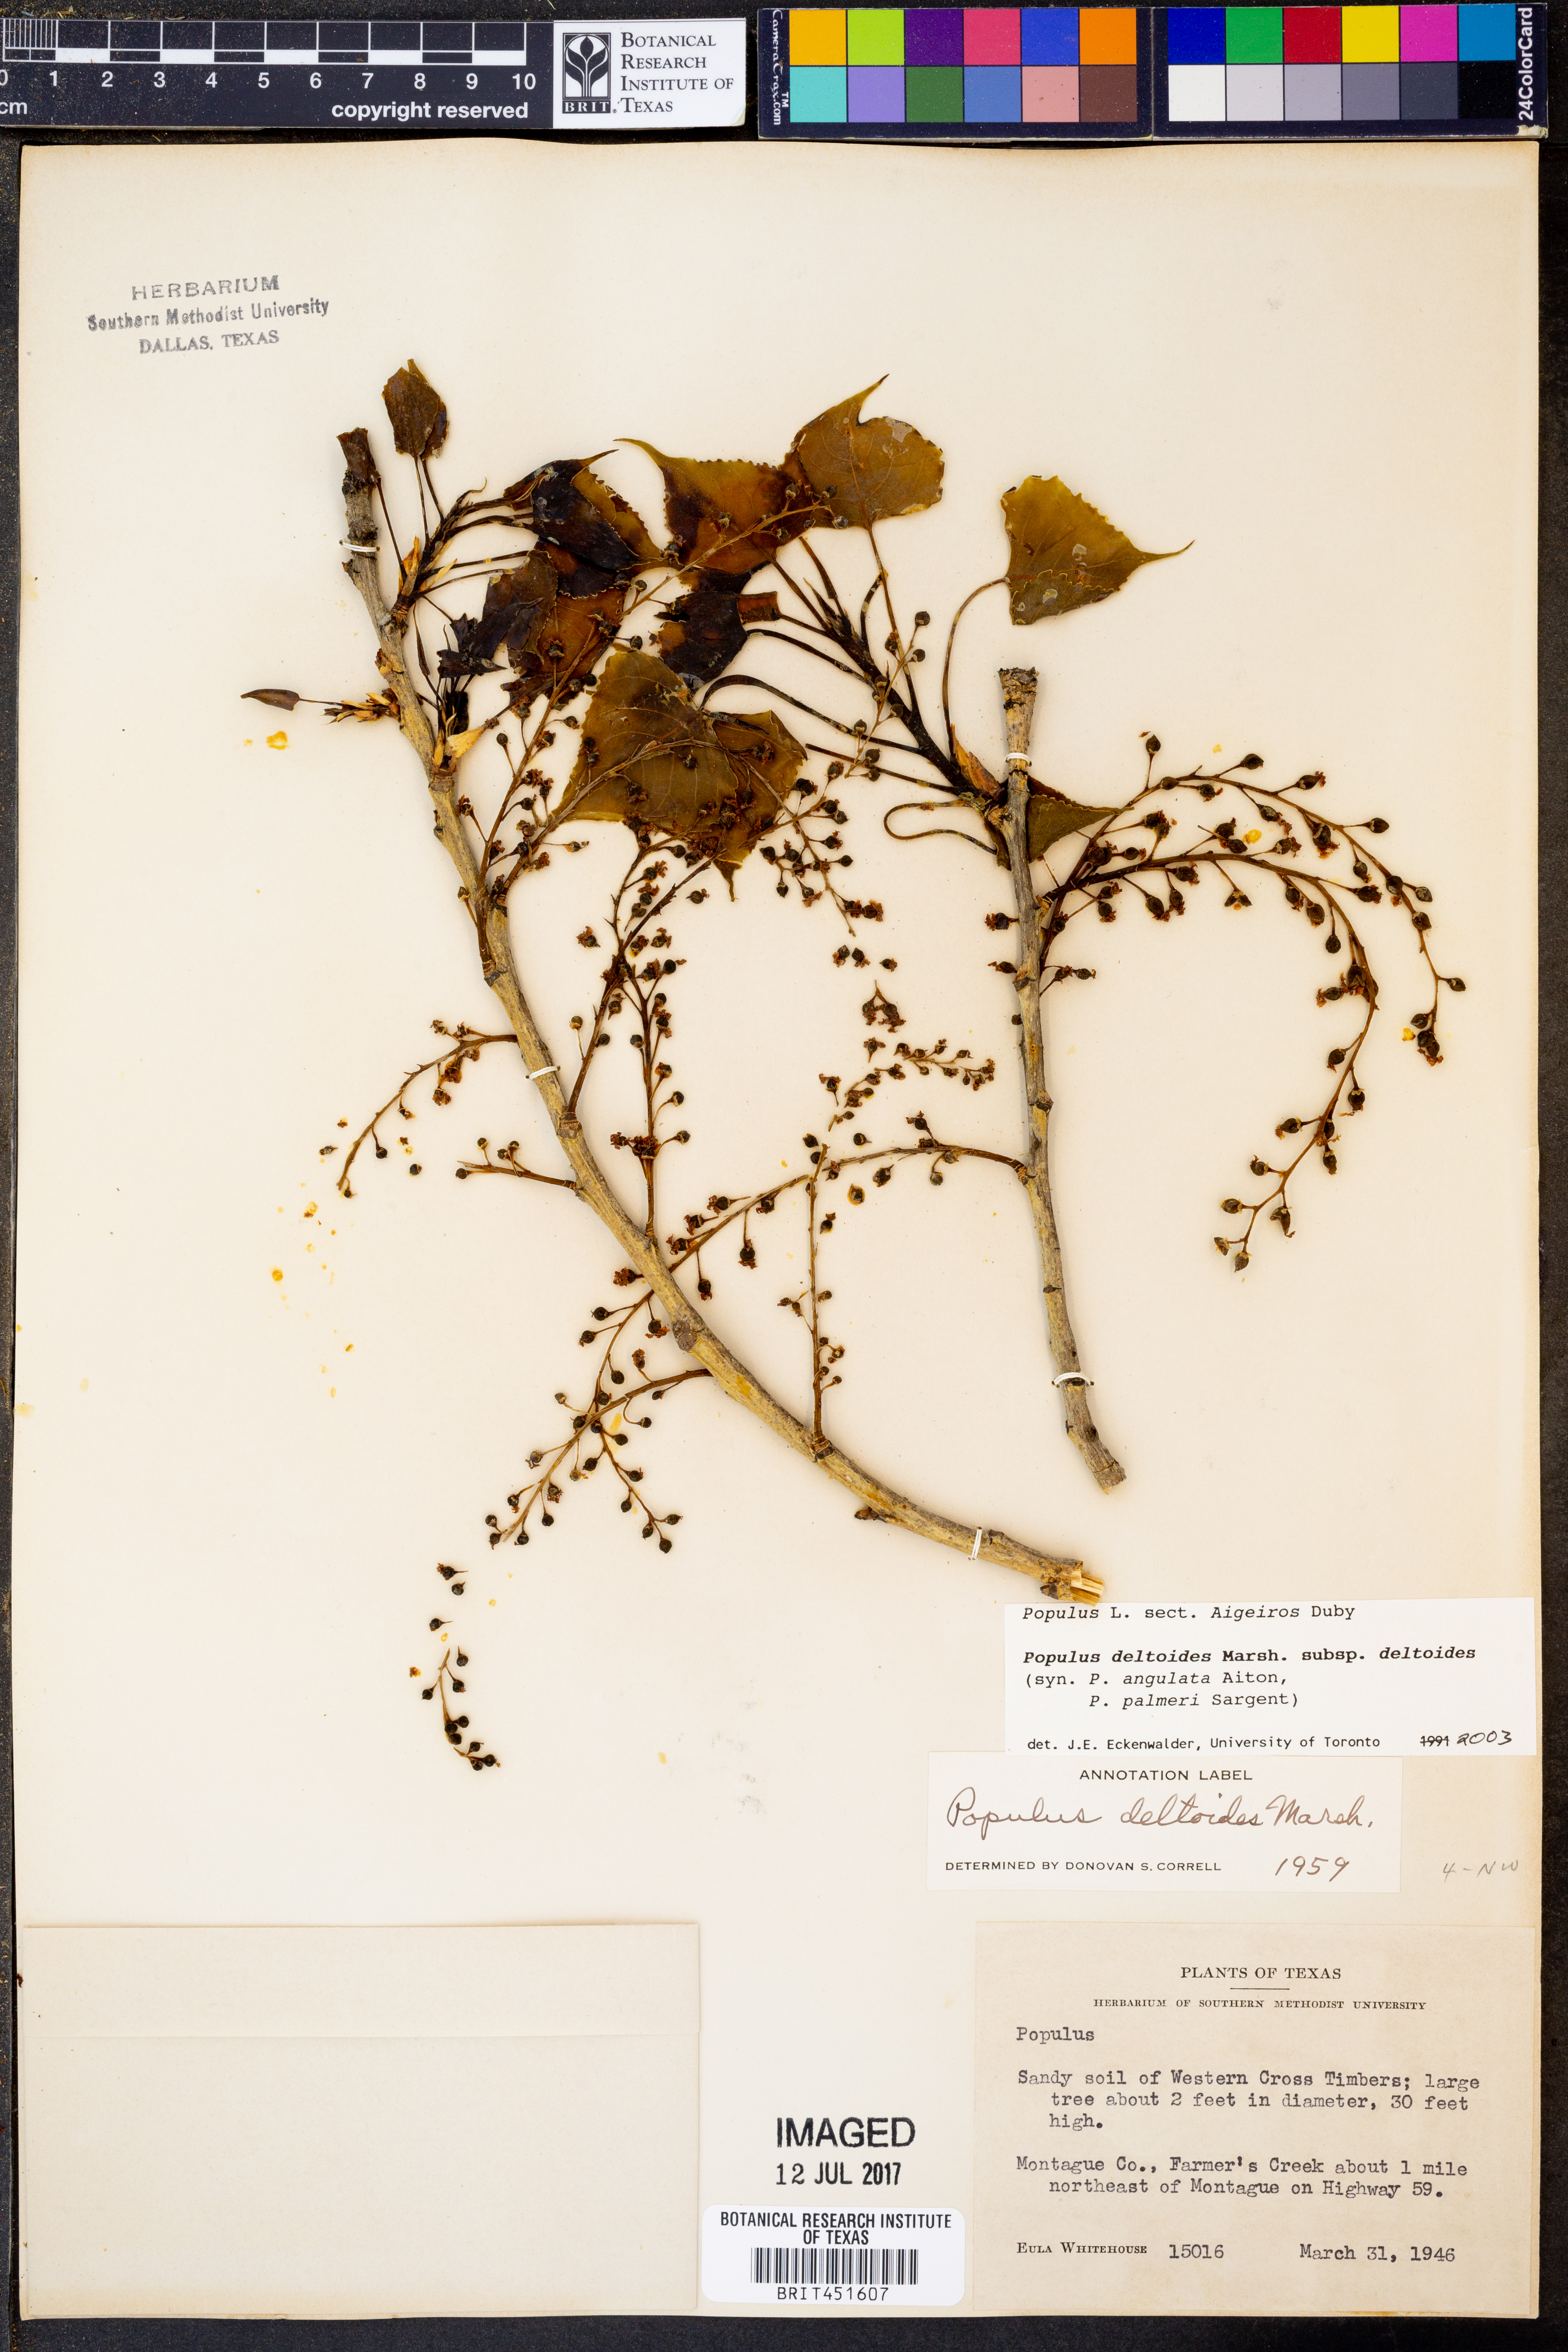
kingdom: Plantae
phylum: Tracheophyta
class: Magnoliopsida
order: Malpighiales
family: Salicaceae
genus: Populus
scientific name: Populus deltoides
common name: Eastern cottonwood
